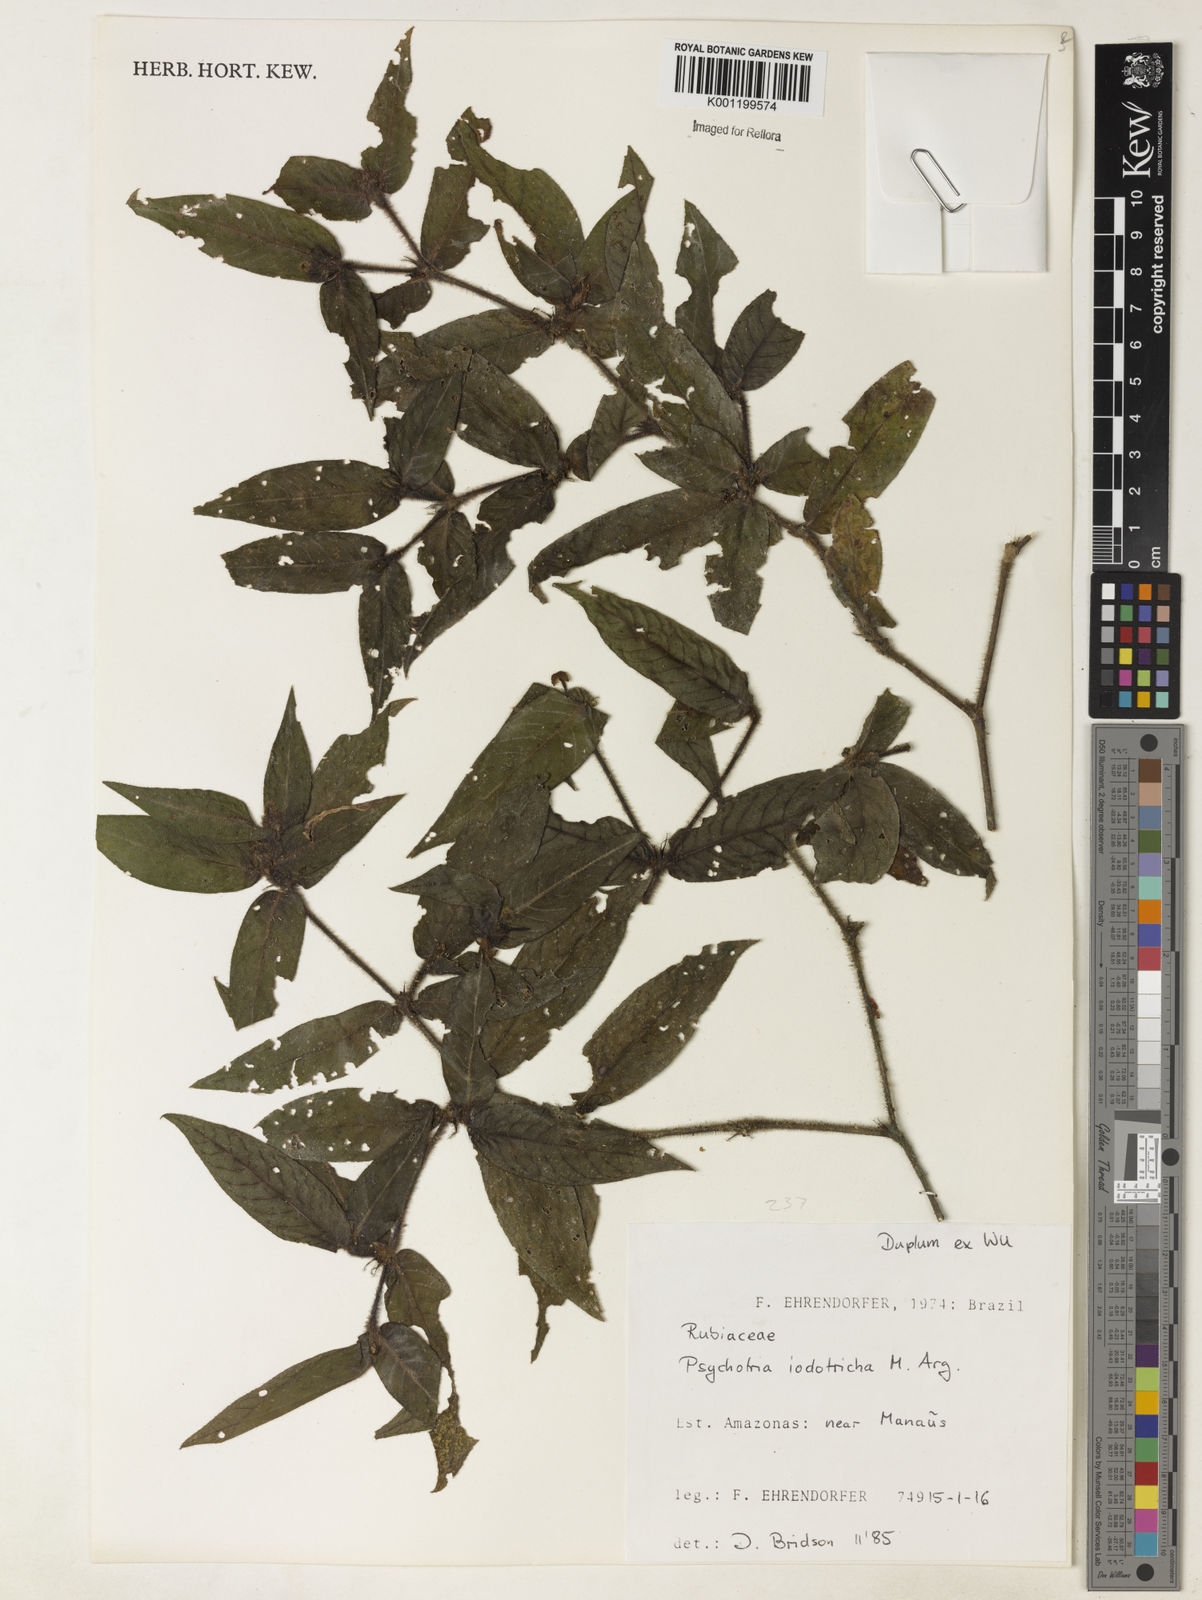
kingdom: Plantae
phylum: Tracheophyta
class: Magnoliopsida
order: Gentianales
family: Rubiaceae
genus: Psychotria
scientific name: Psychotria
